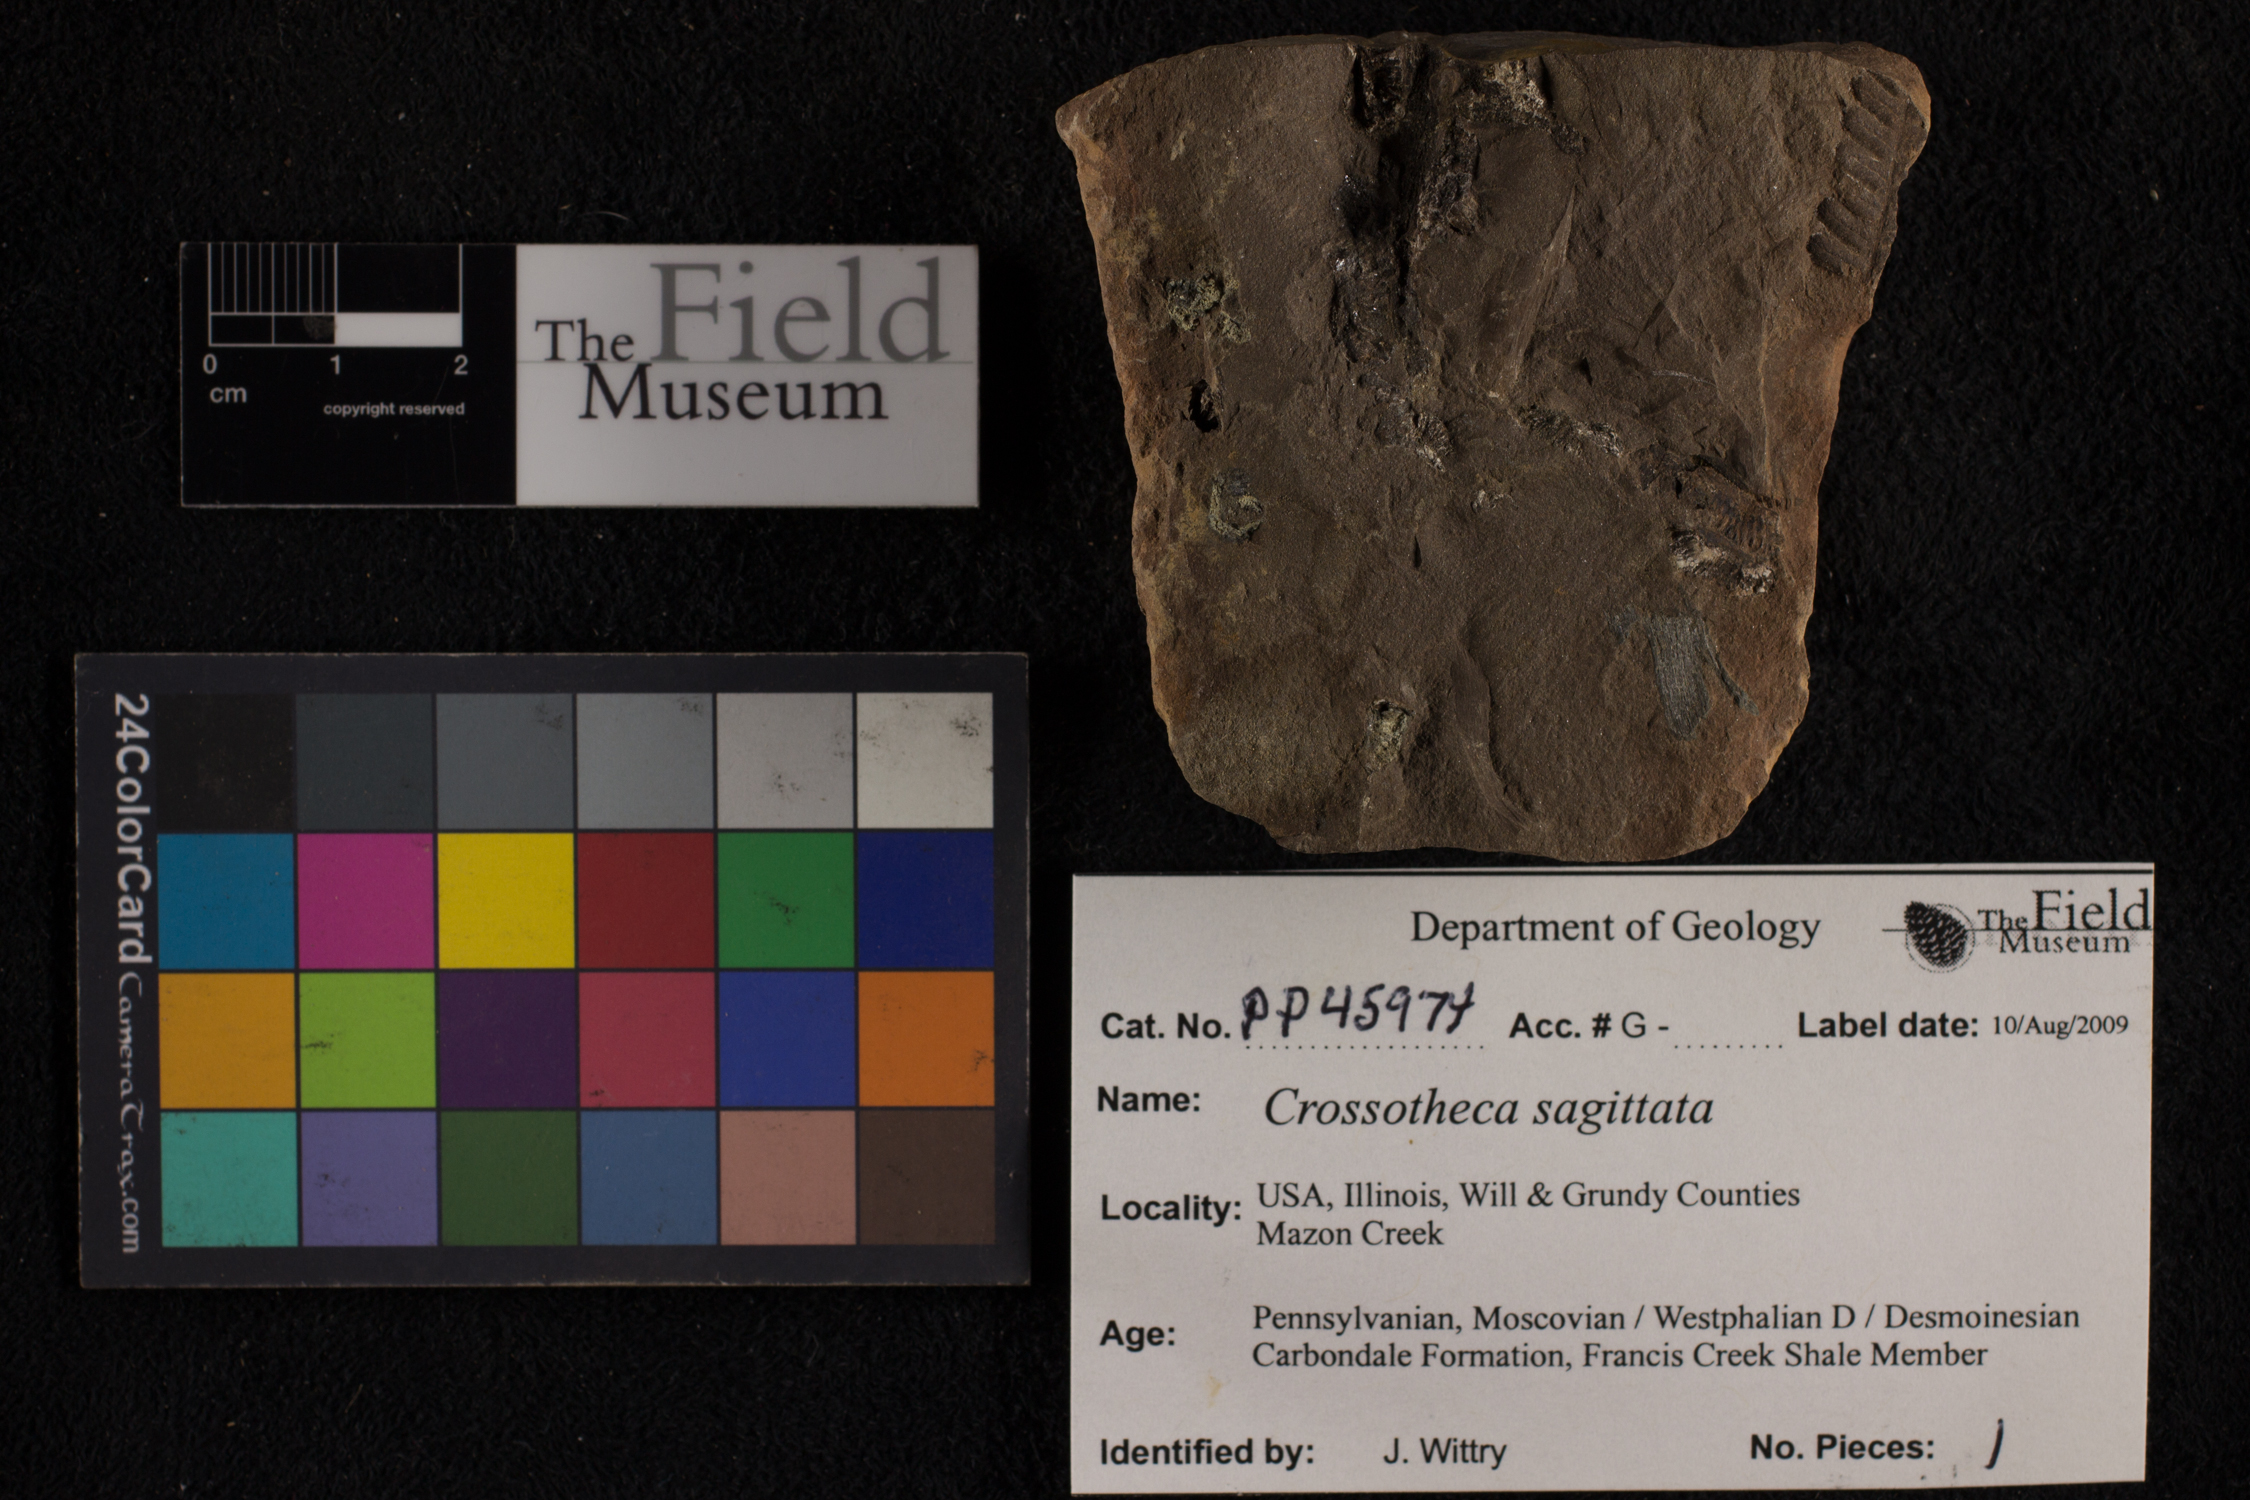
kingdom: Plantae
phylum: Tracheophyta
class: Polypodiopsida
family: Stauropteridaceae
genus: Crossotheca
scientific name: Crossotheca
